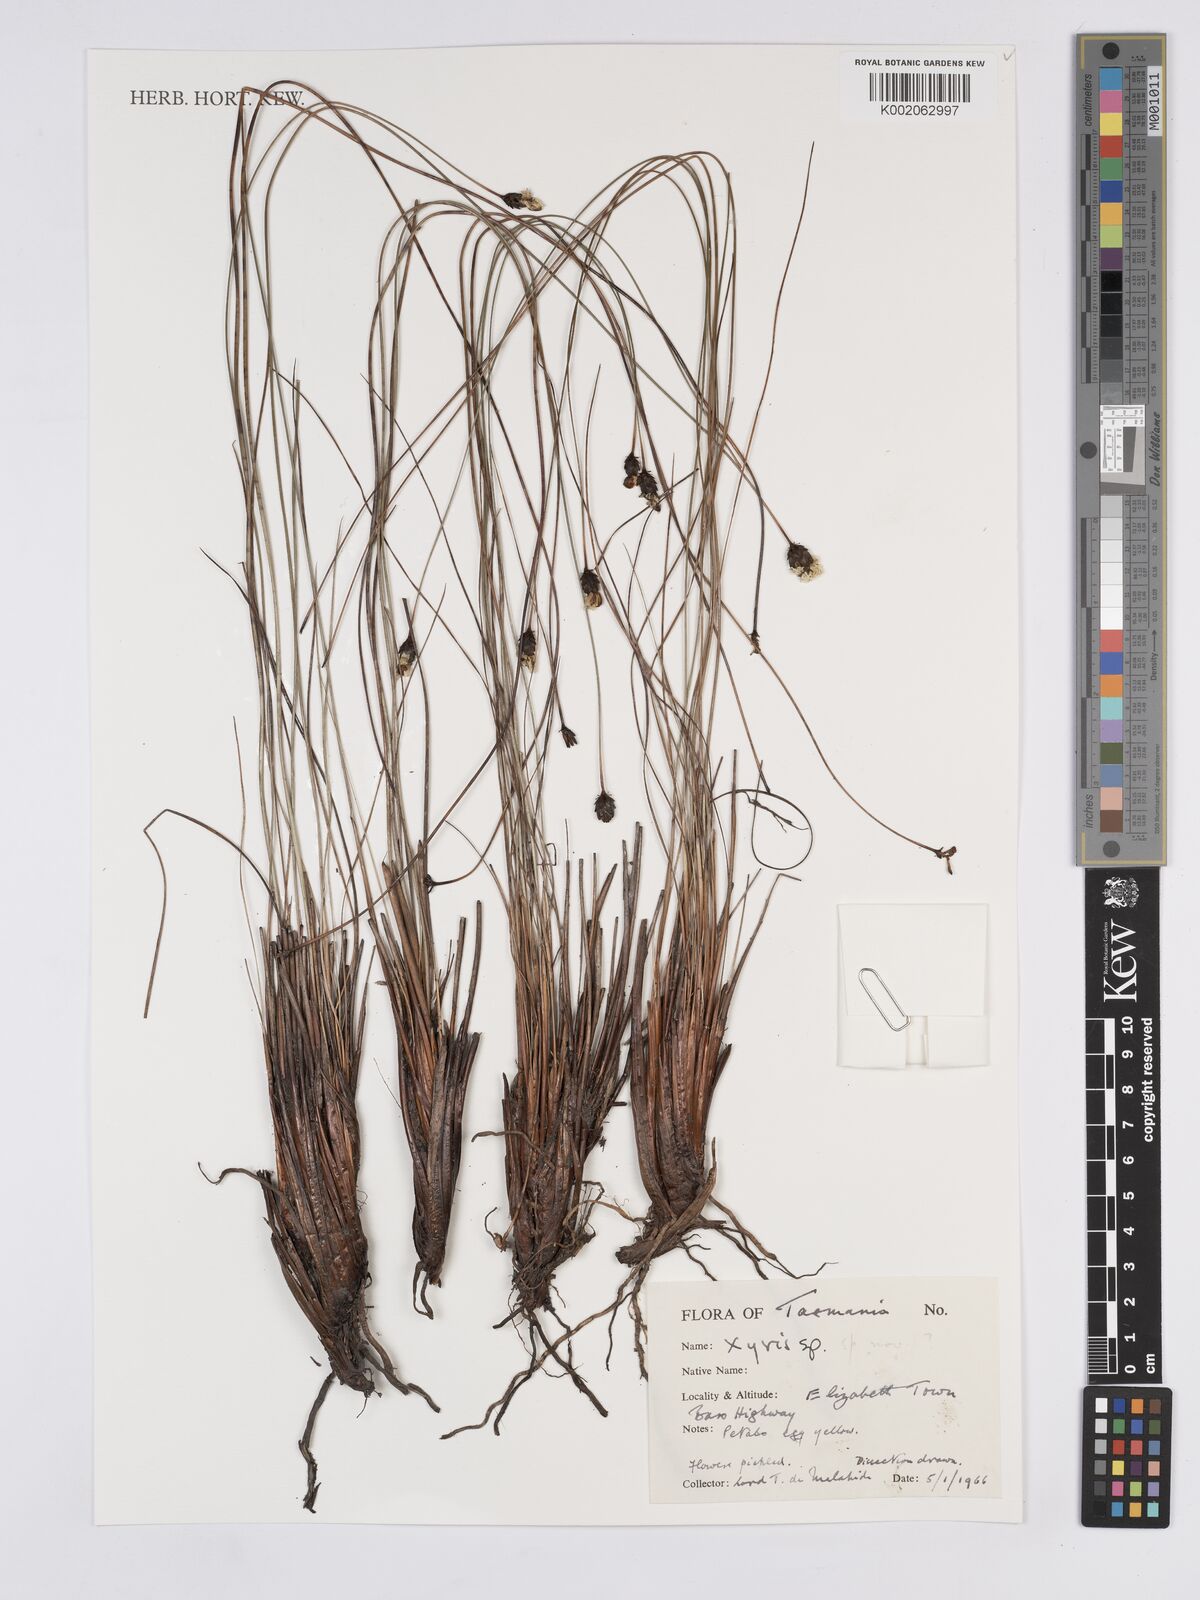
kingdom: Plantae
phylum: Tracheophyta
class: Liliopsida
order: Poales
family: Xyridaceae
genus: Xyris
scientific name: Xyris
